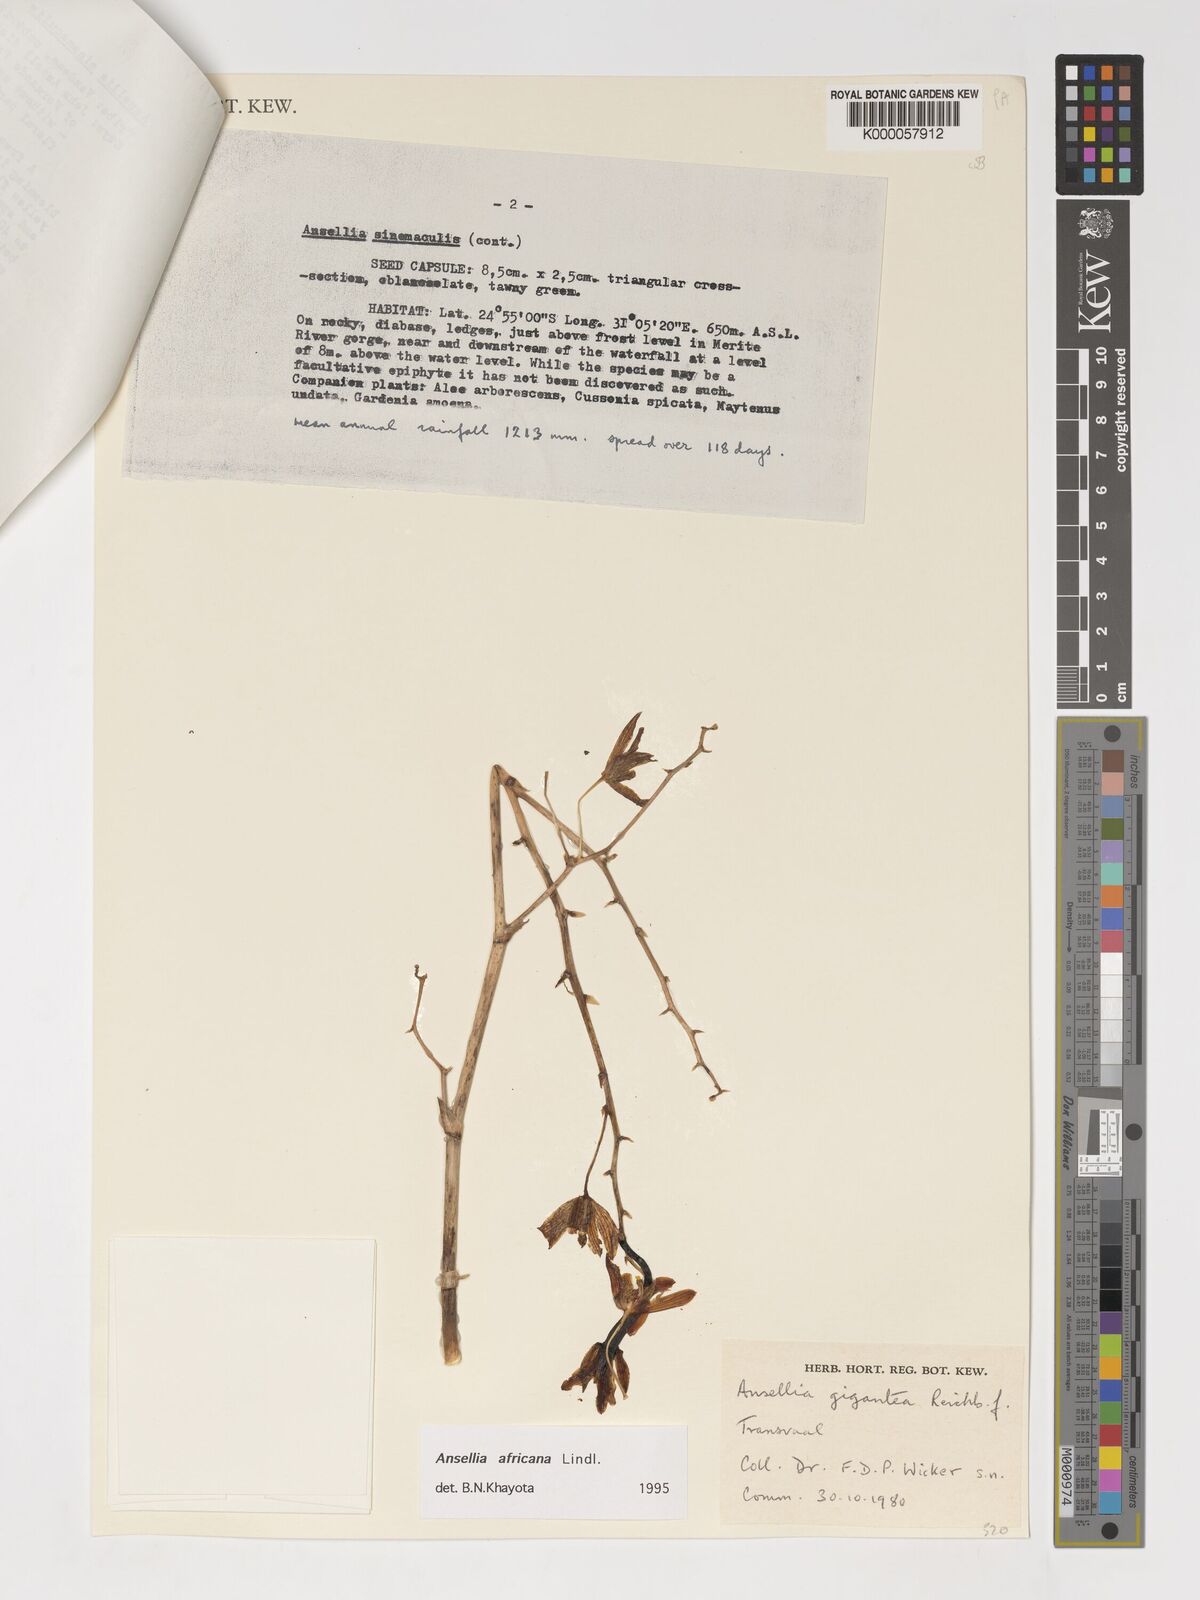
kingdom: Plantae
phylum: Tracheophyta
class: Liliopsida
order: Asparagales
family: Orchidaceae
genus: Ansellia
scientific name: Ansellia africana
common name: African ansellia
